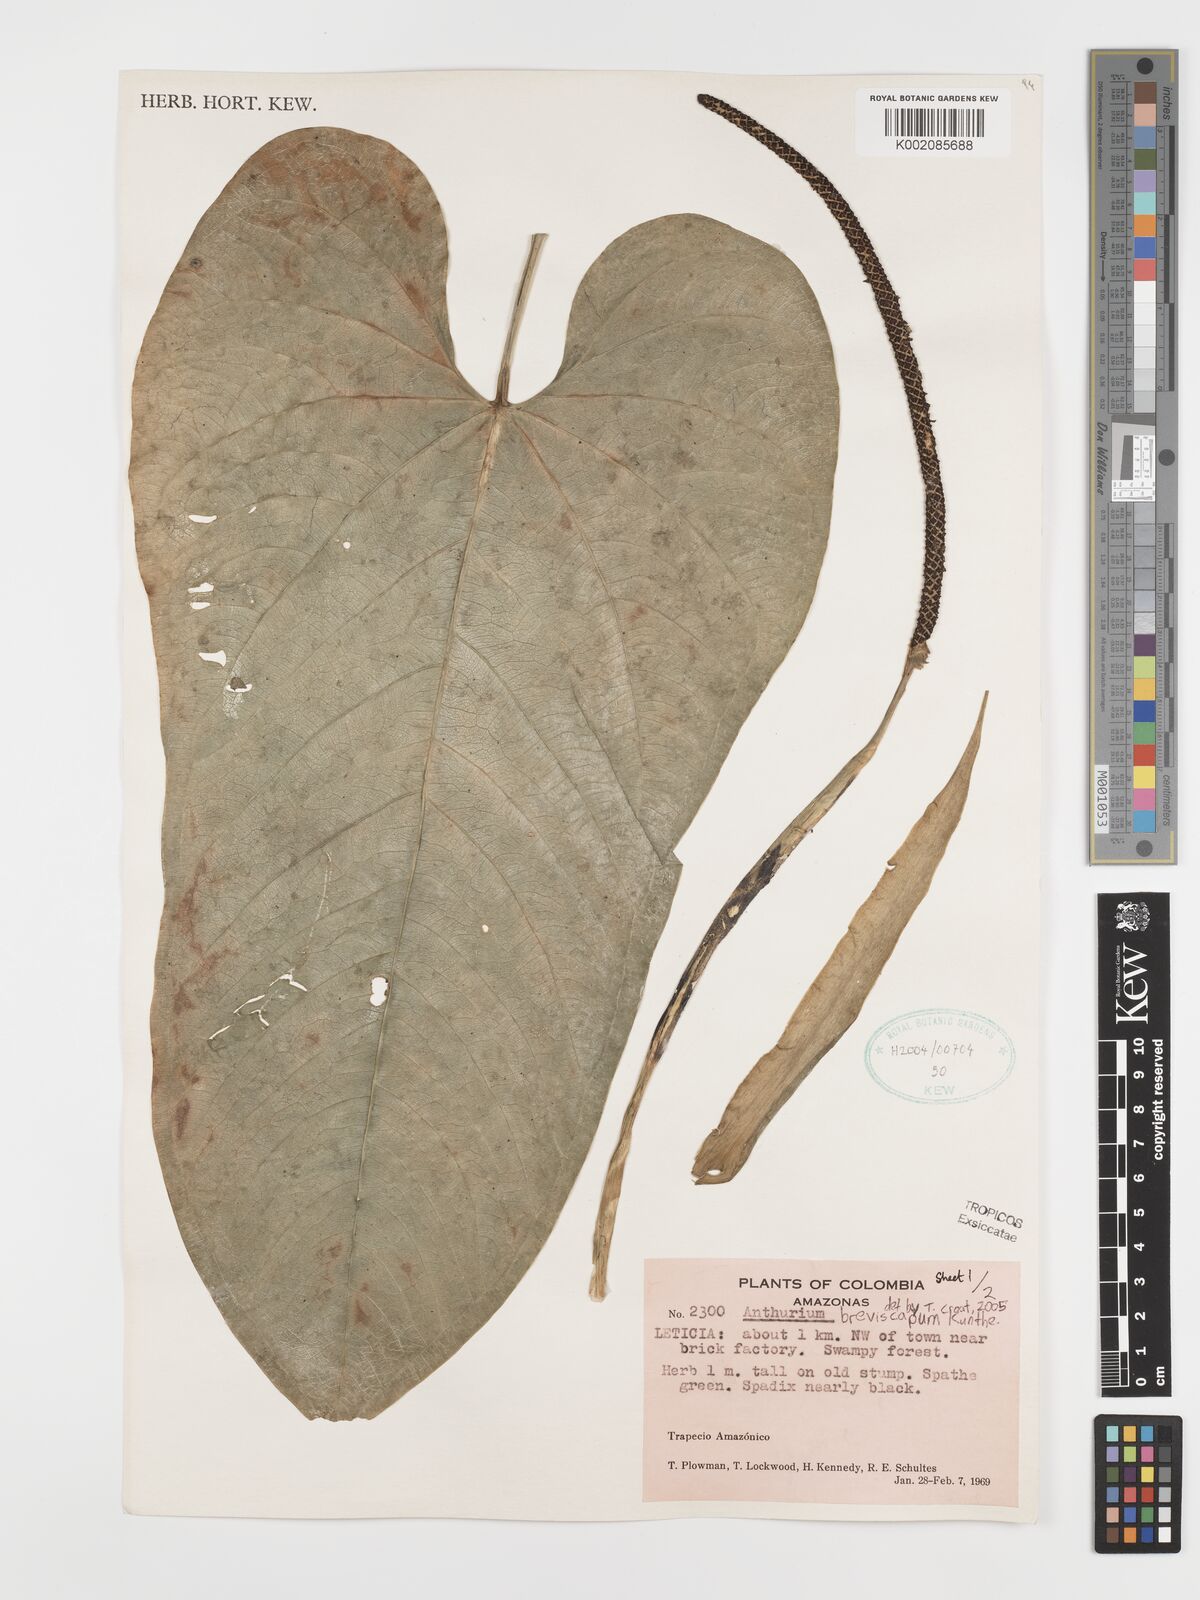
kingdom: Plantae
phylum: Tracheophyta
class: Liliopsida
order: Alismatales
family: Araceae
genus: Anthurium
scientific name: Anthurium breviscapum
